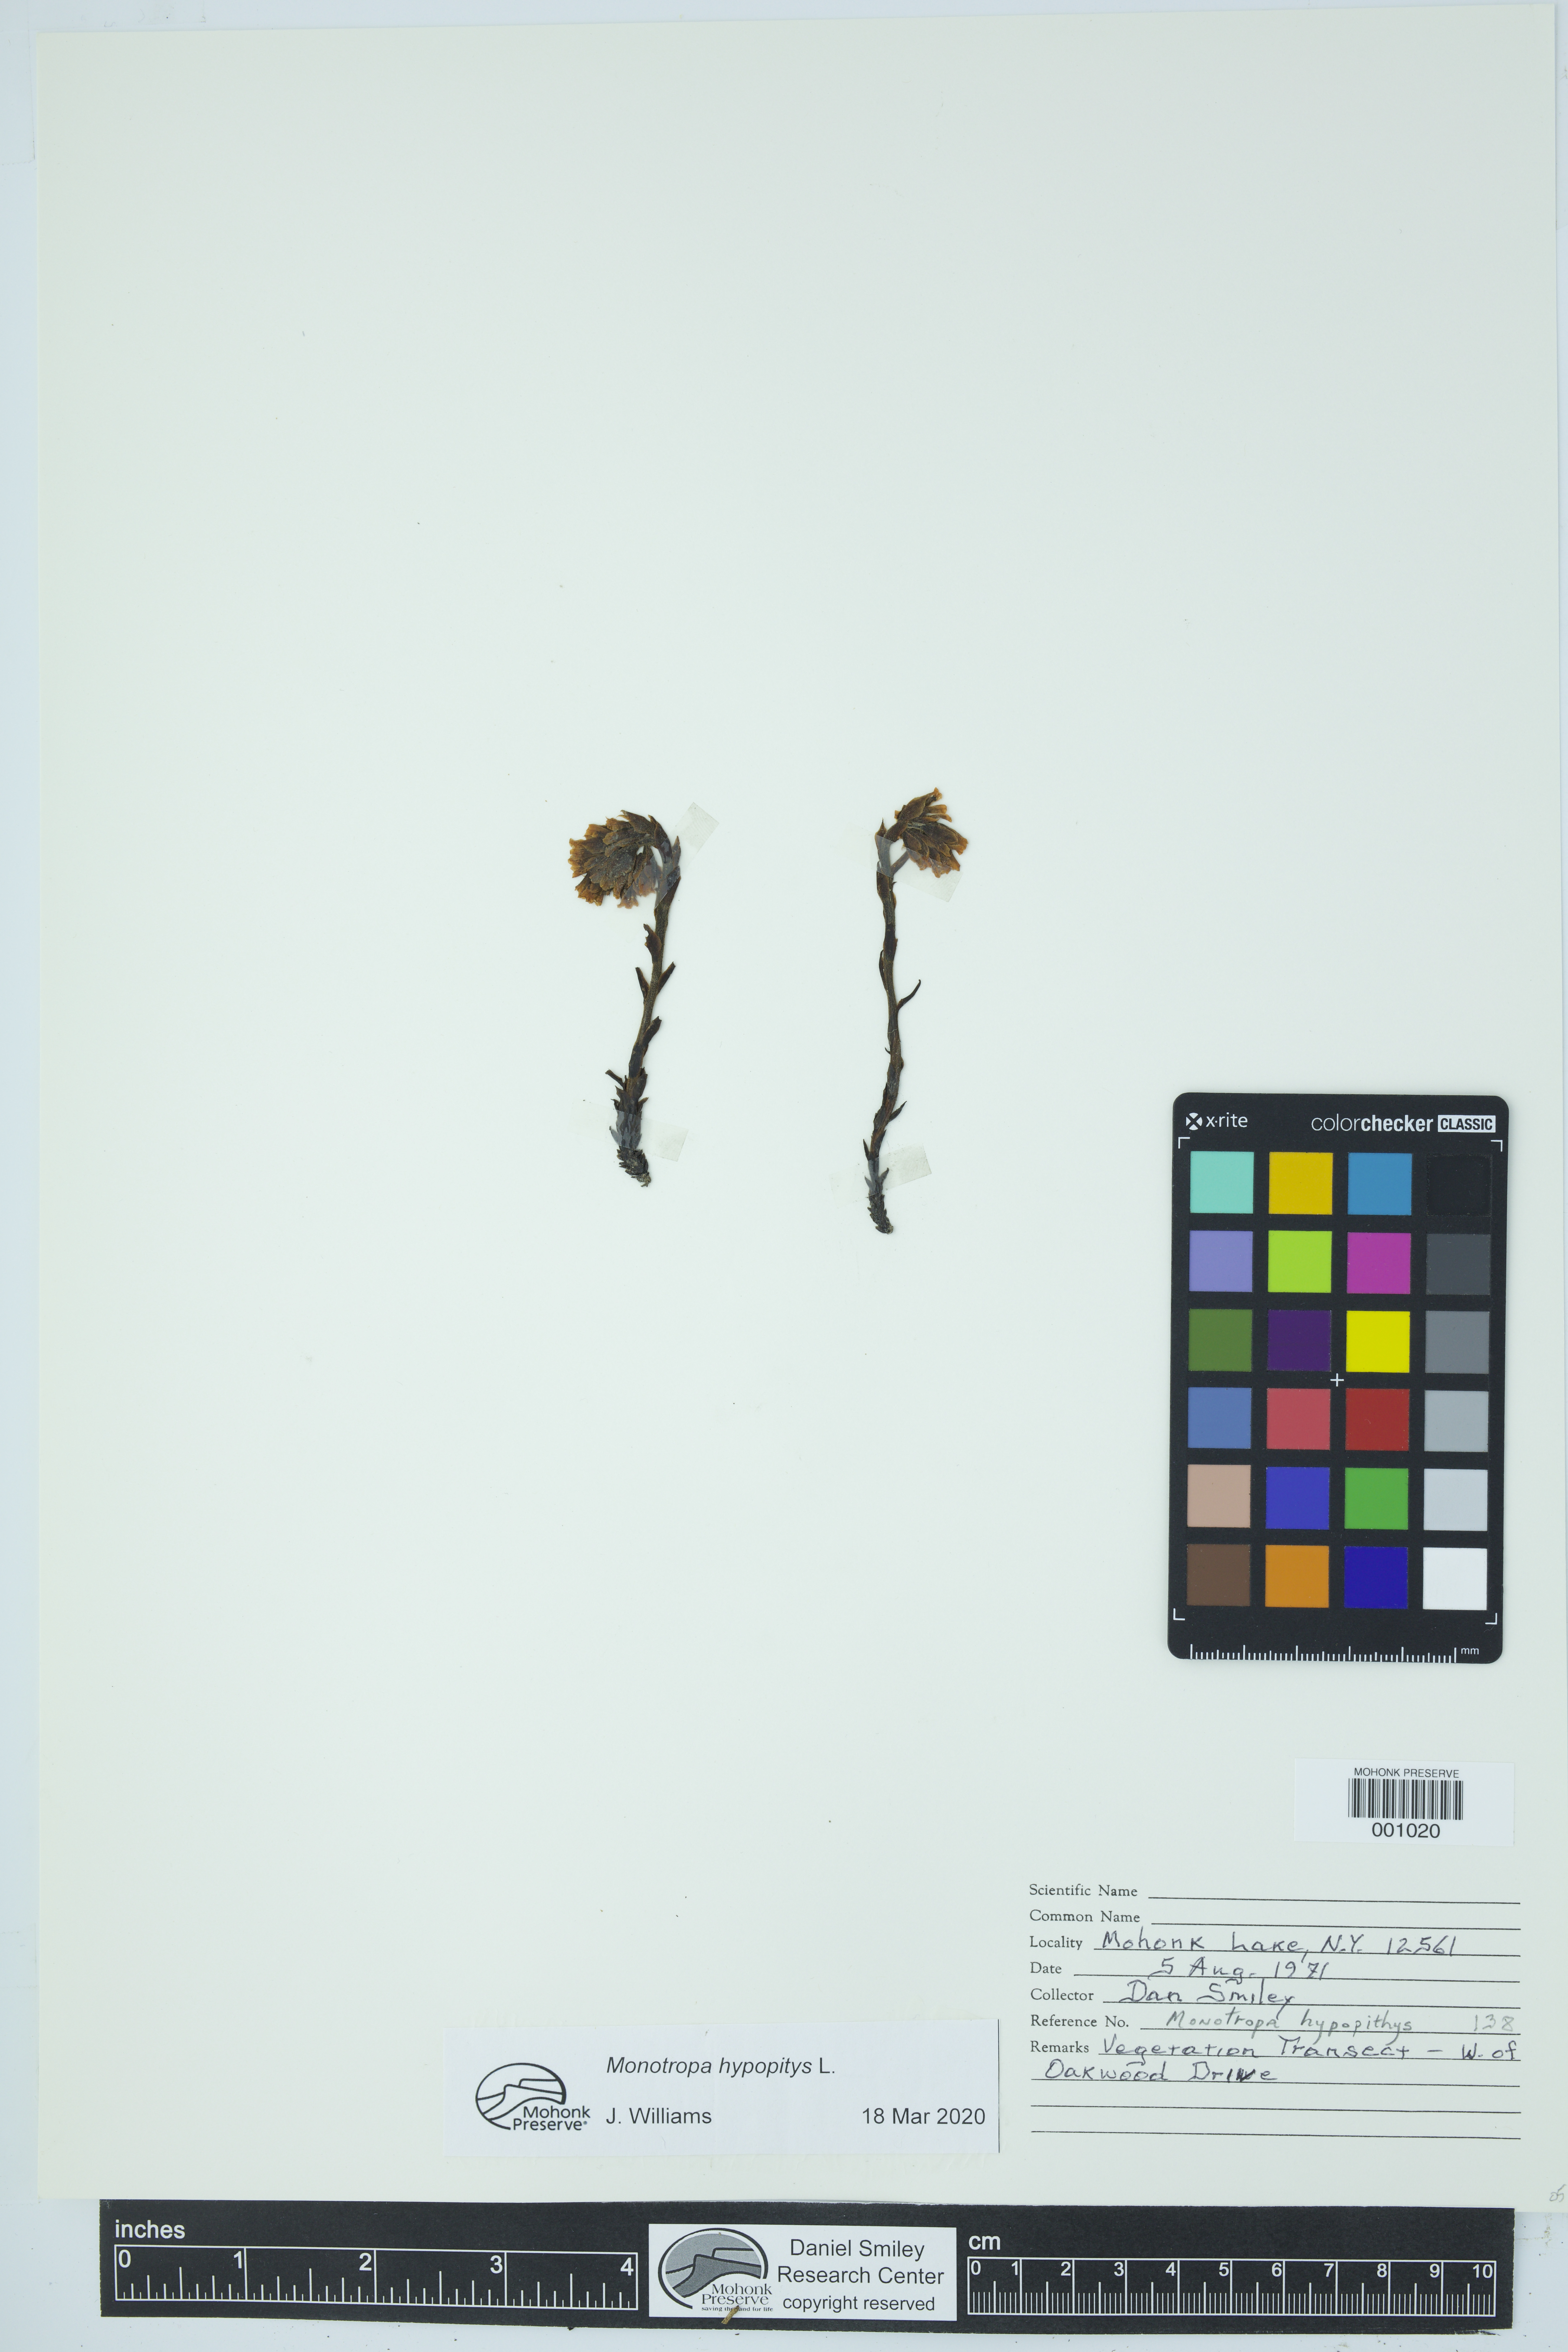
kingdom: Plantae
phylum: Tracheophyta
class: Magnoliopsida
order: Ericales
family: Ericaceae
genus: Hypopitys
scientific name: Hypopitys monotropa
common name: Yellow bird's-nest
